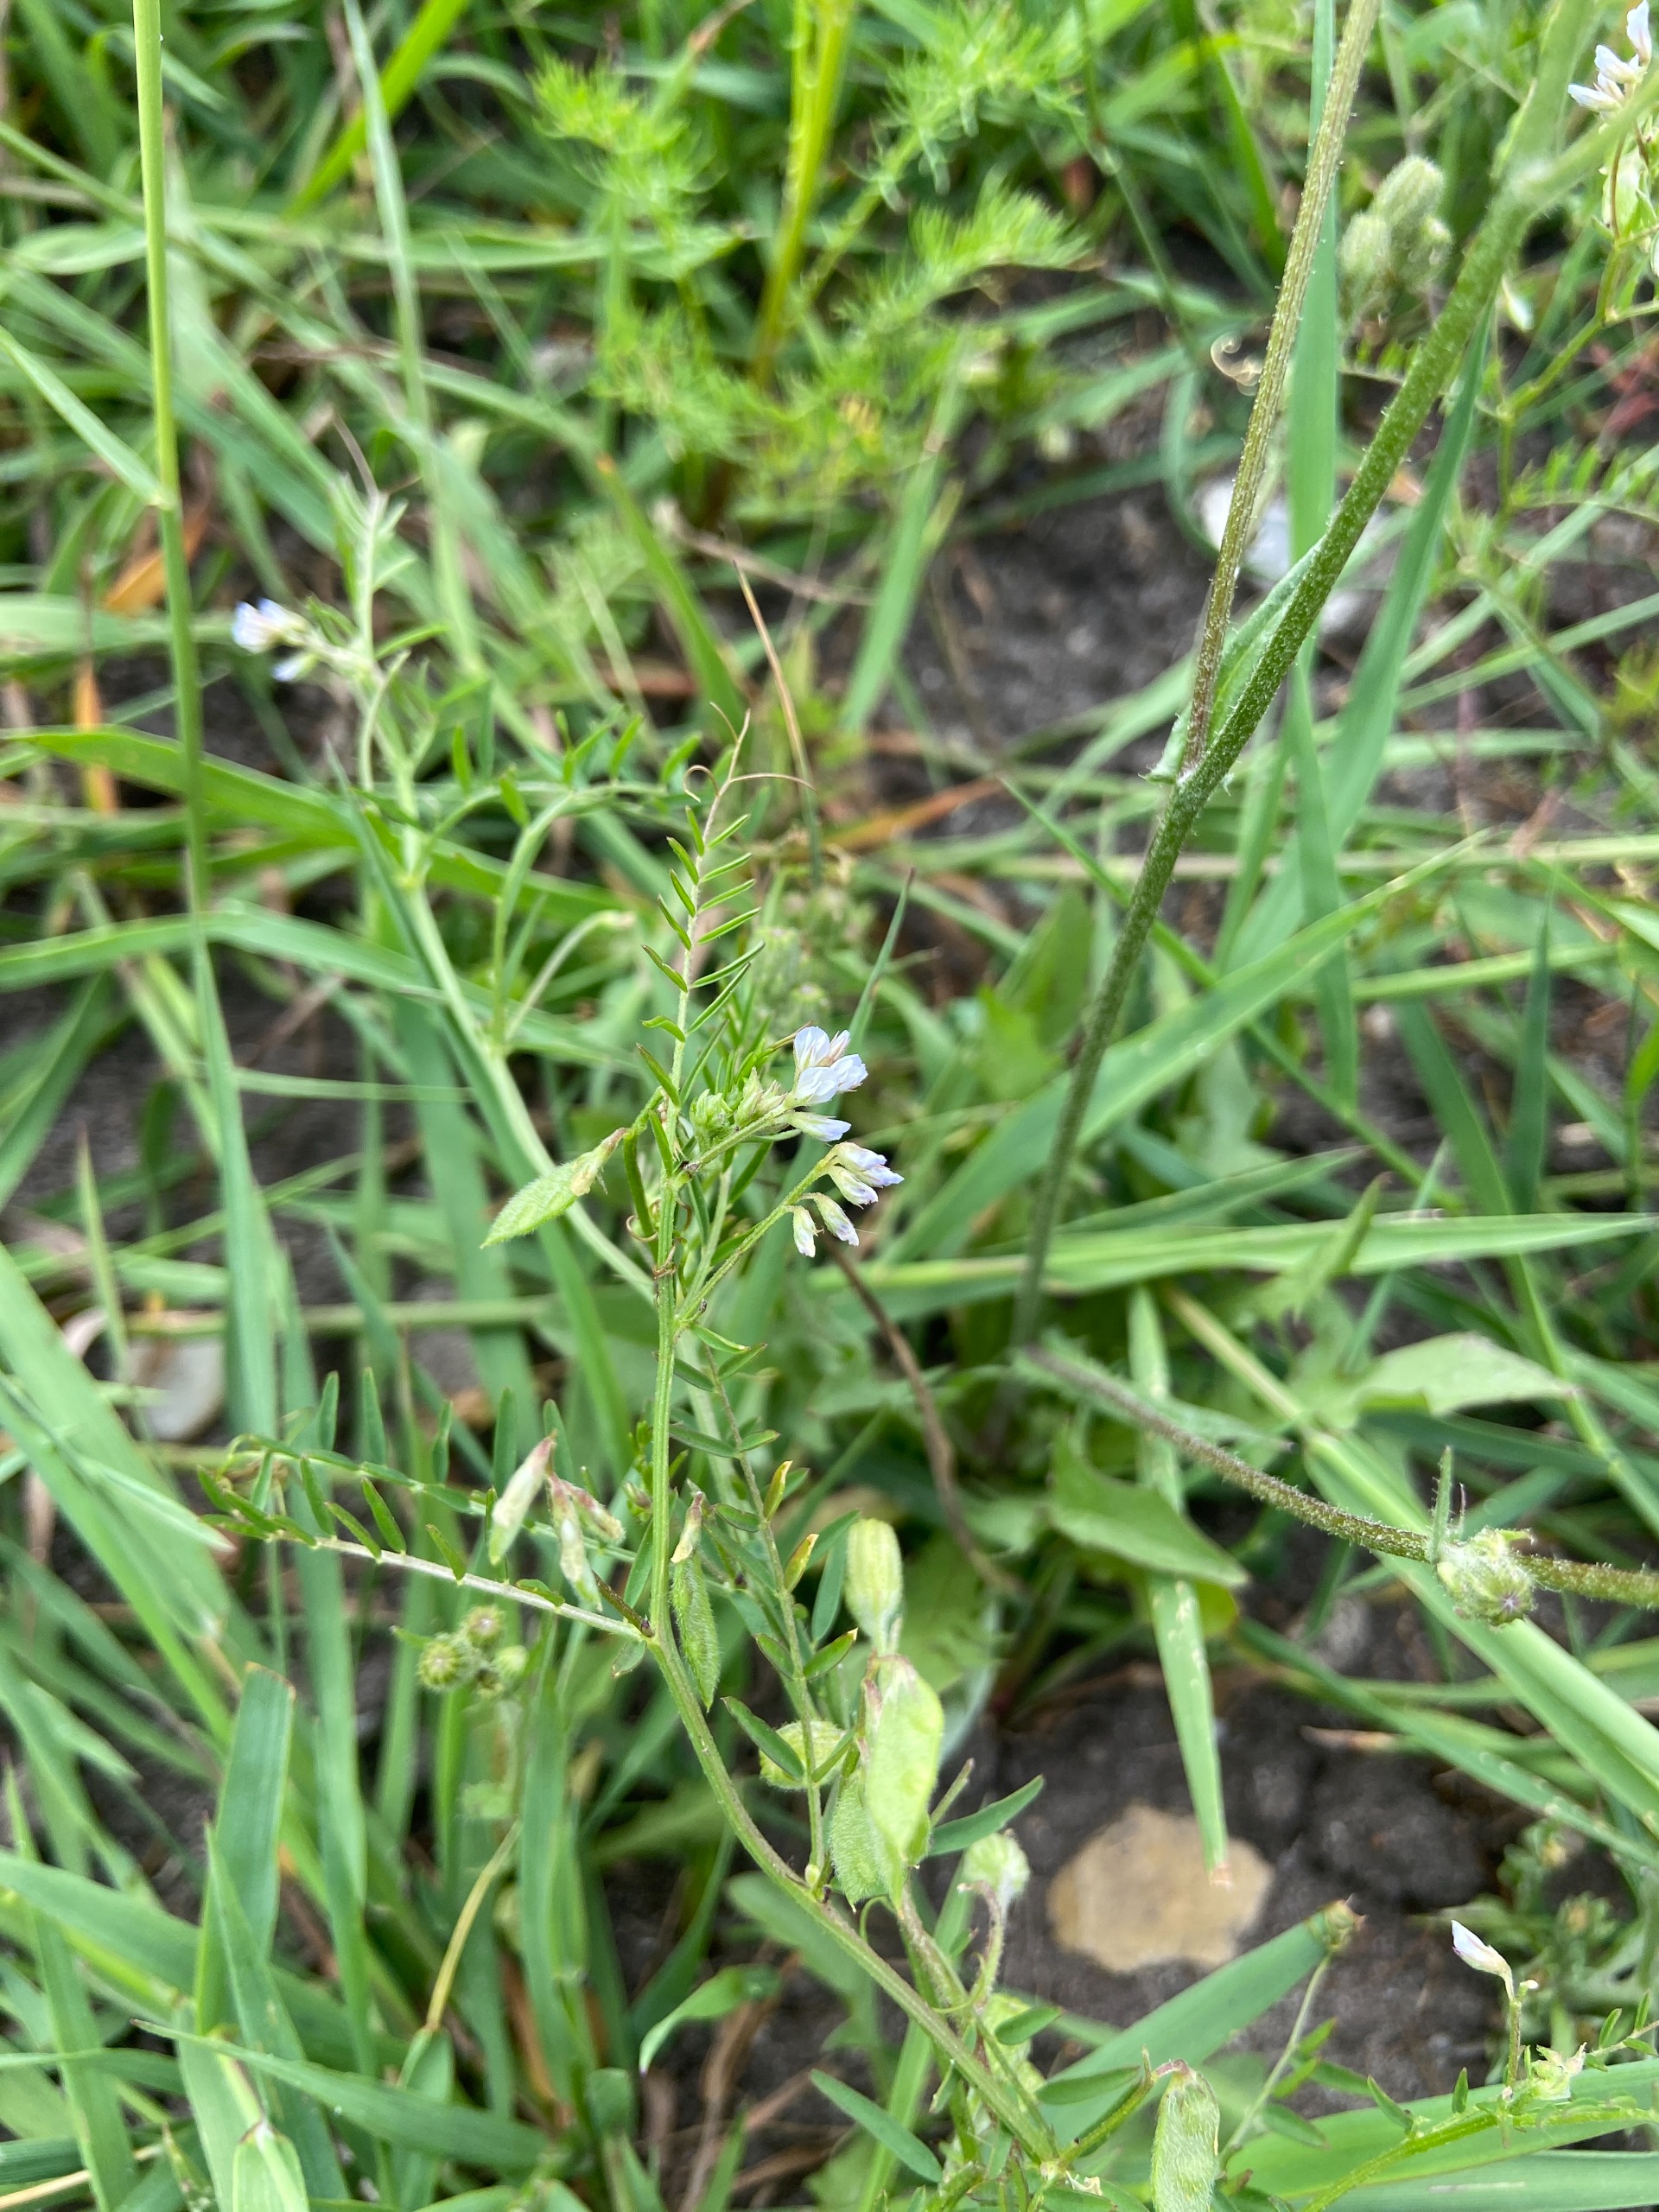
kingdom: Plantae
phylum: Tracheophyta
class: Magnoliopsida
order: Fabales
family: Fabaceae
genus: Vicia
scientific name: Vicia hirsuta
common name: Tofrøet vikke
